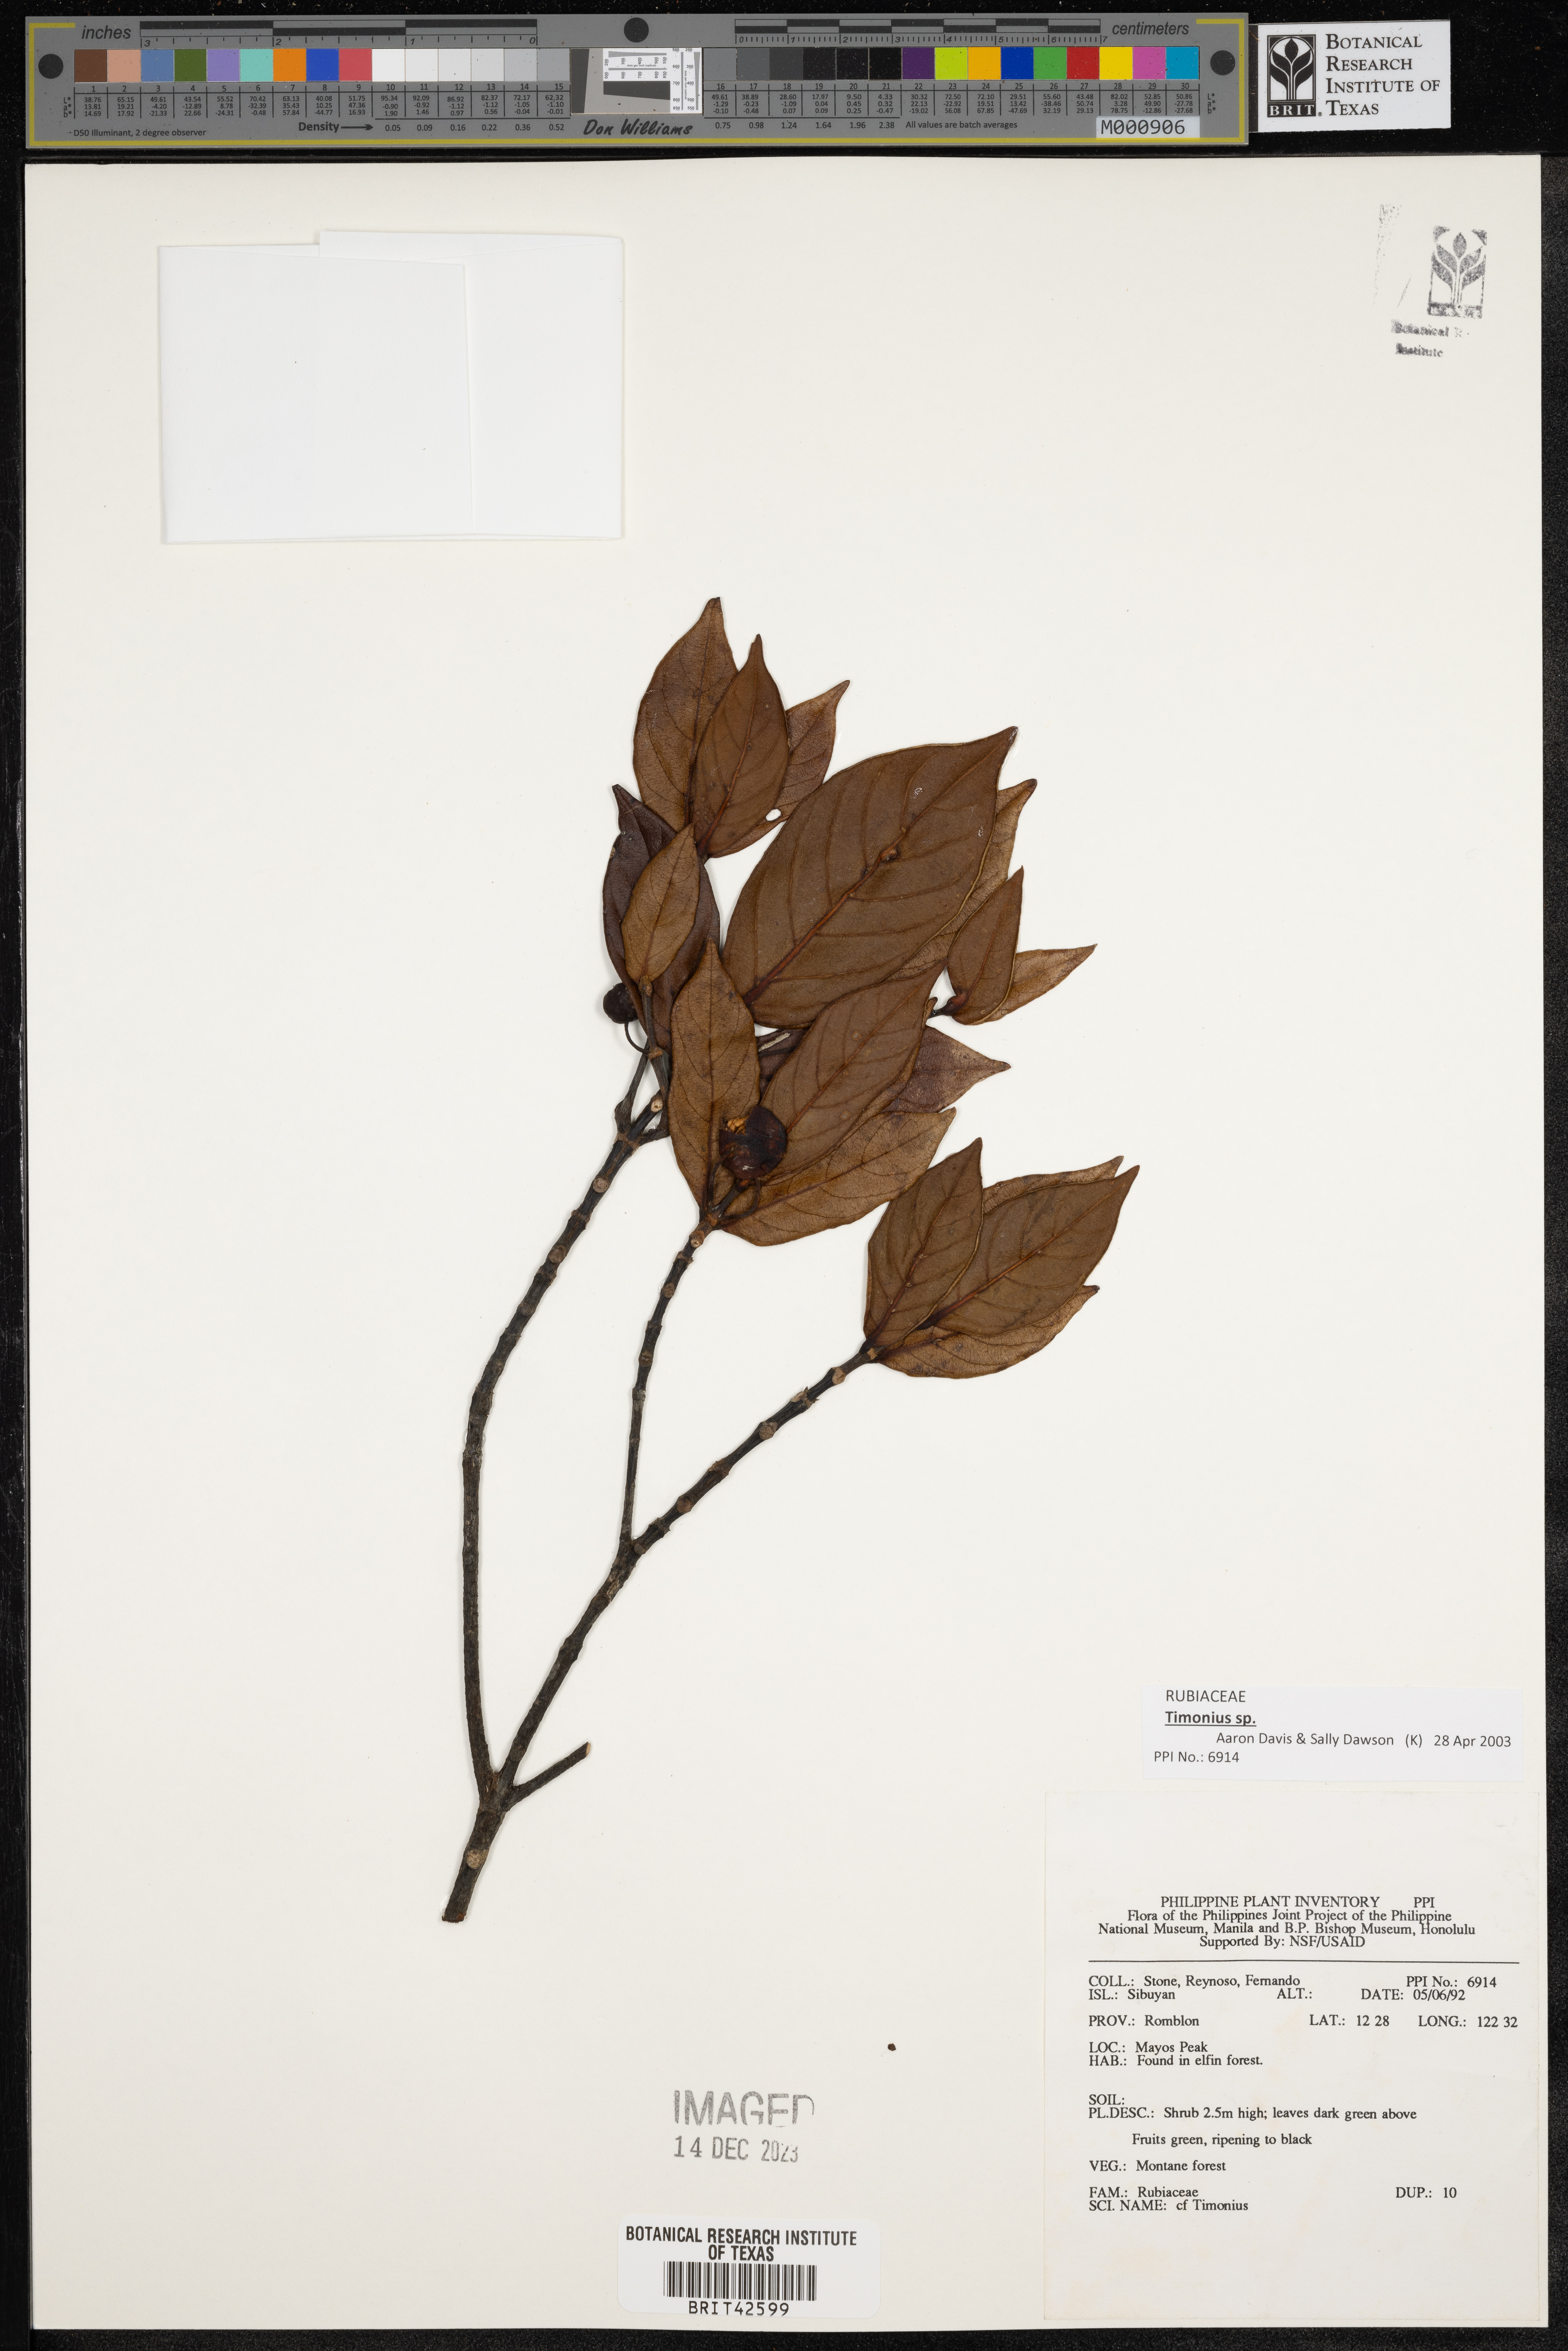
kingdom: Plantae
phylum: Tracheophyta
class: Magnoliopsida
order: Gentianales
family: Rubiaceae
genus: Timonius
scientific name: Timonius
